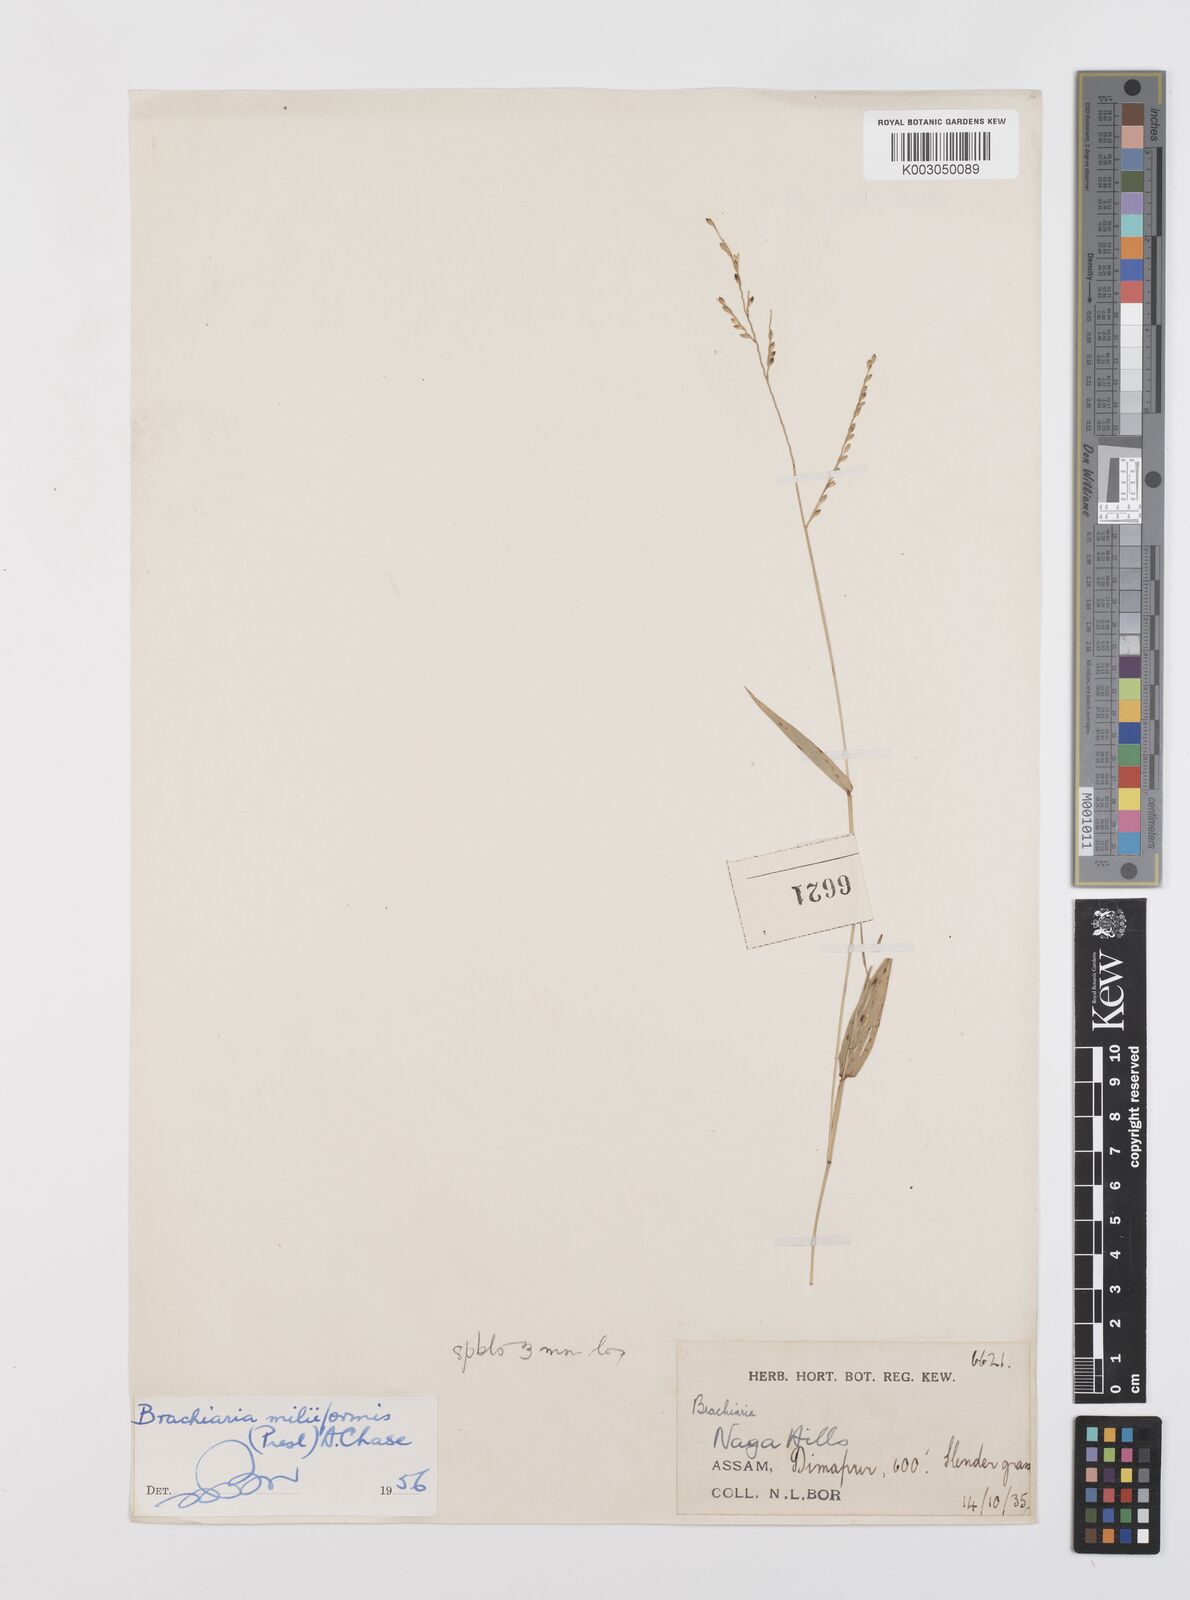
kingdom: Plantae
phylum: Tracheophyta
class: Liliopsida
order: Poales
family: Poaceae
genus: Urochloa
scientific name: Urochloa subquadripara
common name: Armgrass millet
